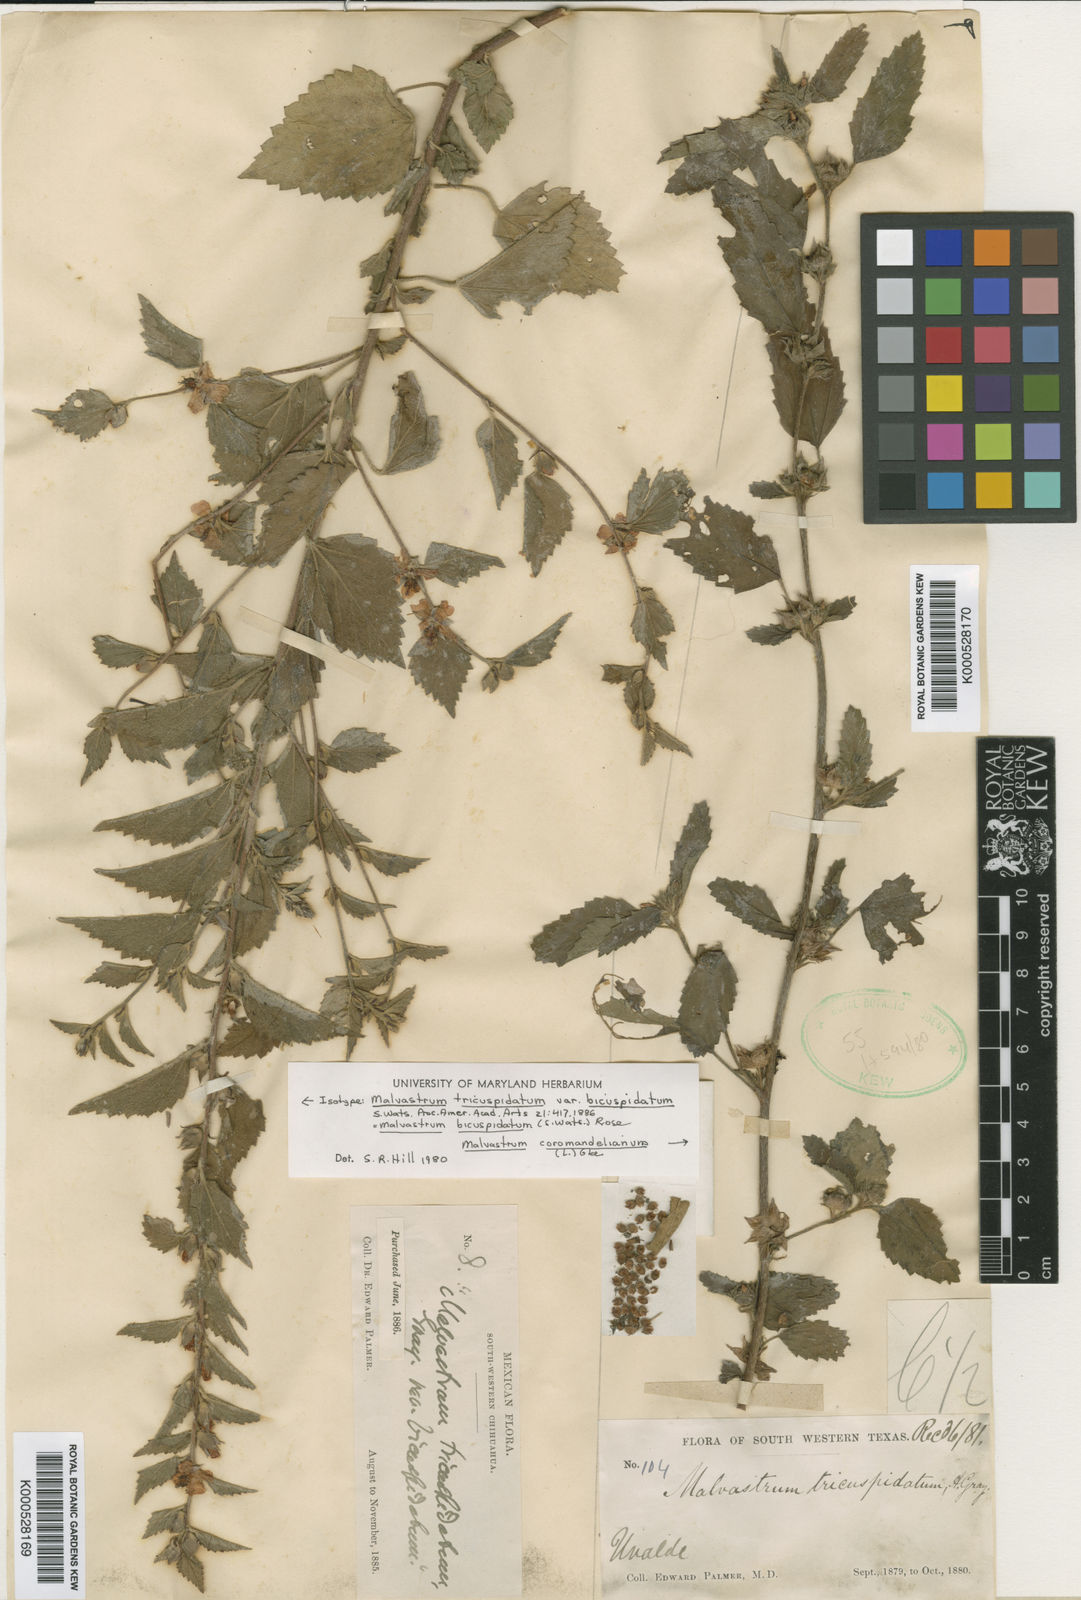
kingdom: Plantae
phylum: Tracheophyta
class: Magnoliopsida
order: Malvales
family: Malvaceae
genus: Malvastrum
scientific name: Malvastrum bicuspidatum
